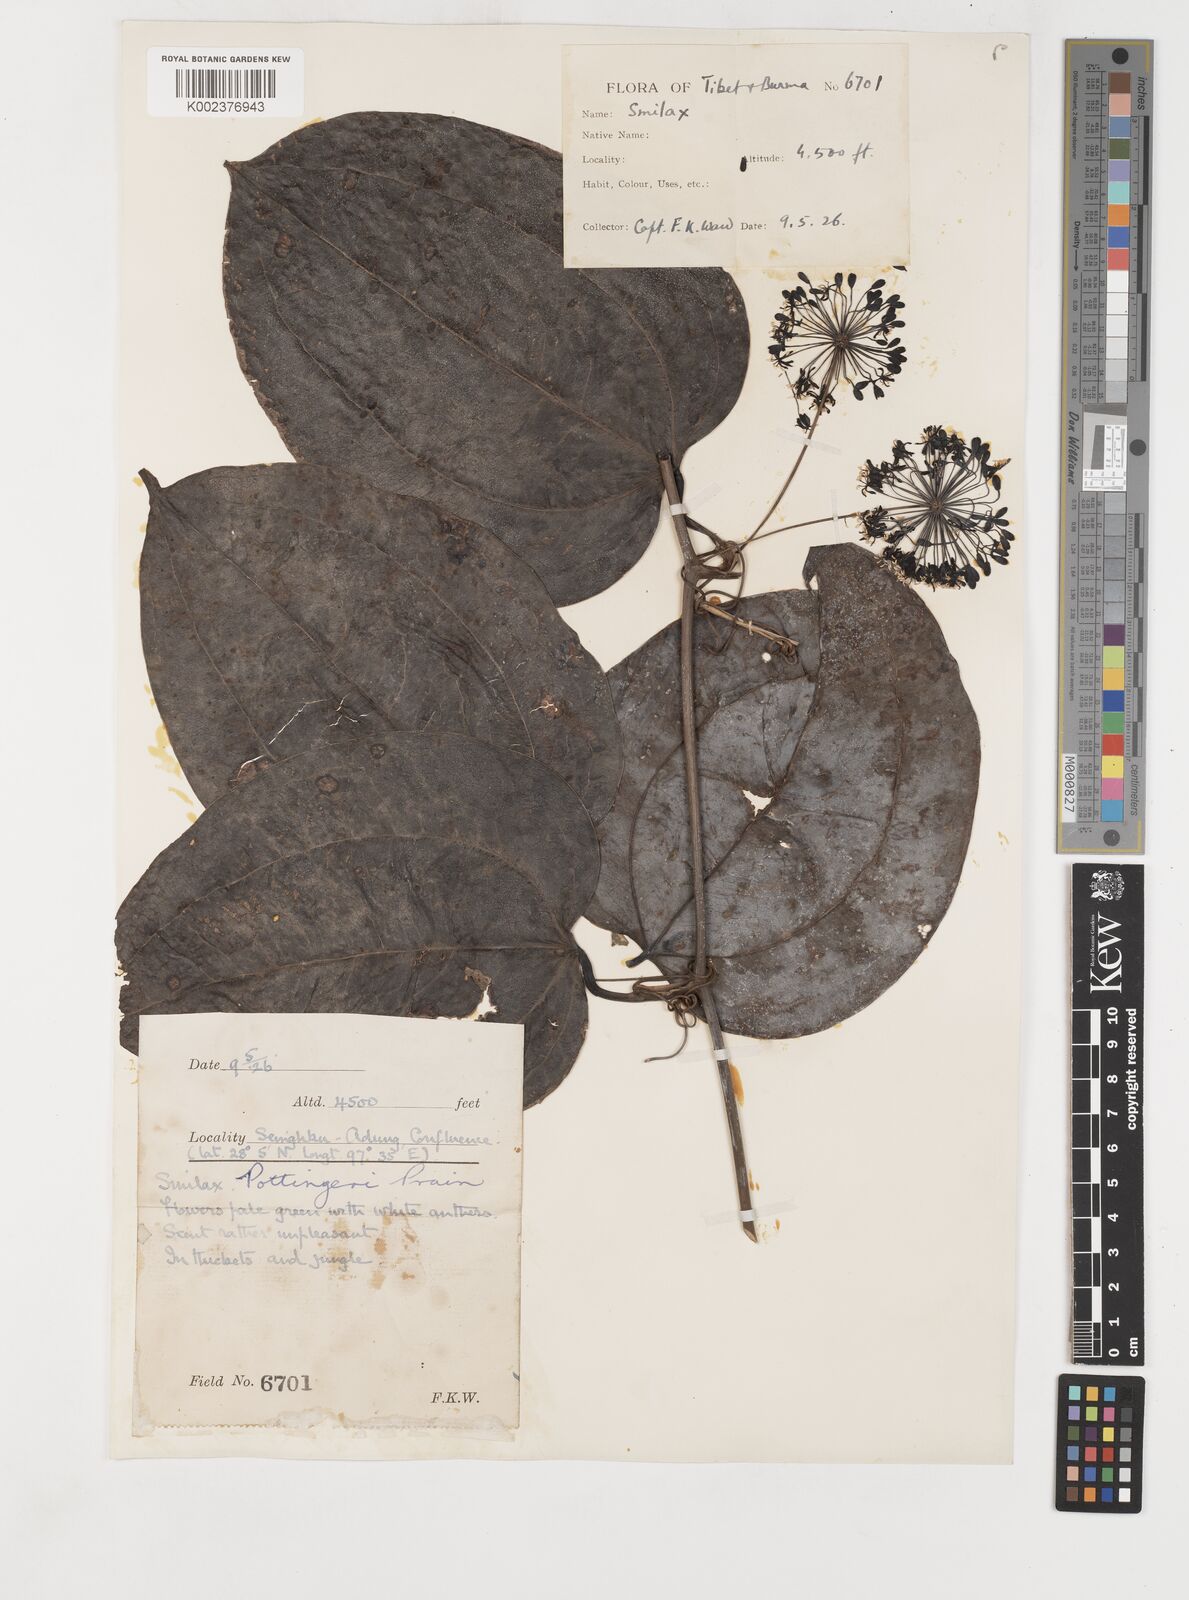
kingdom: Plantae
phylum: Tracheophyta
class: Liliopsida
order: Liliales
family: Smilacaceae
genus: Smilax
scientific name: Smilax pottingeri
